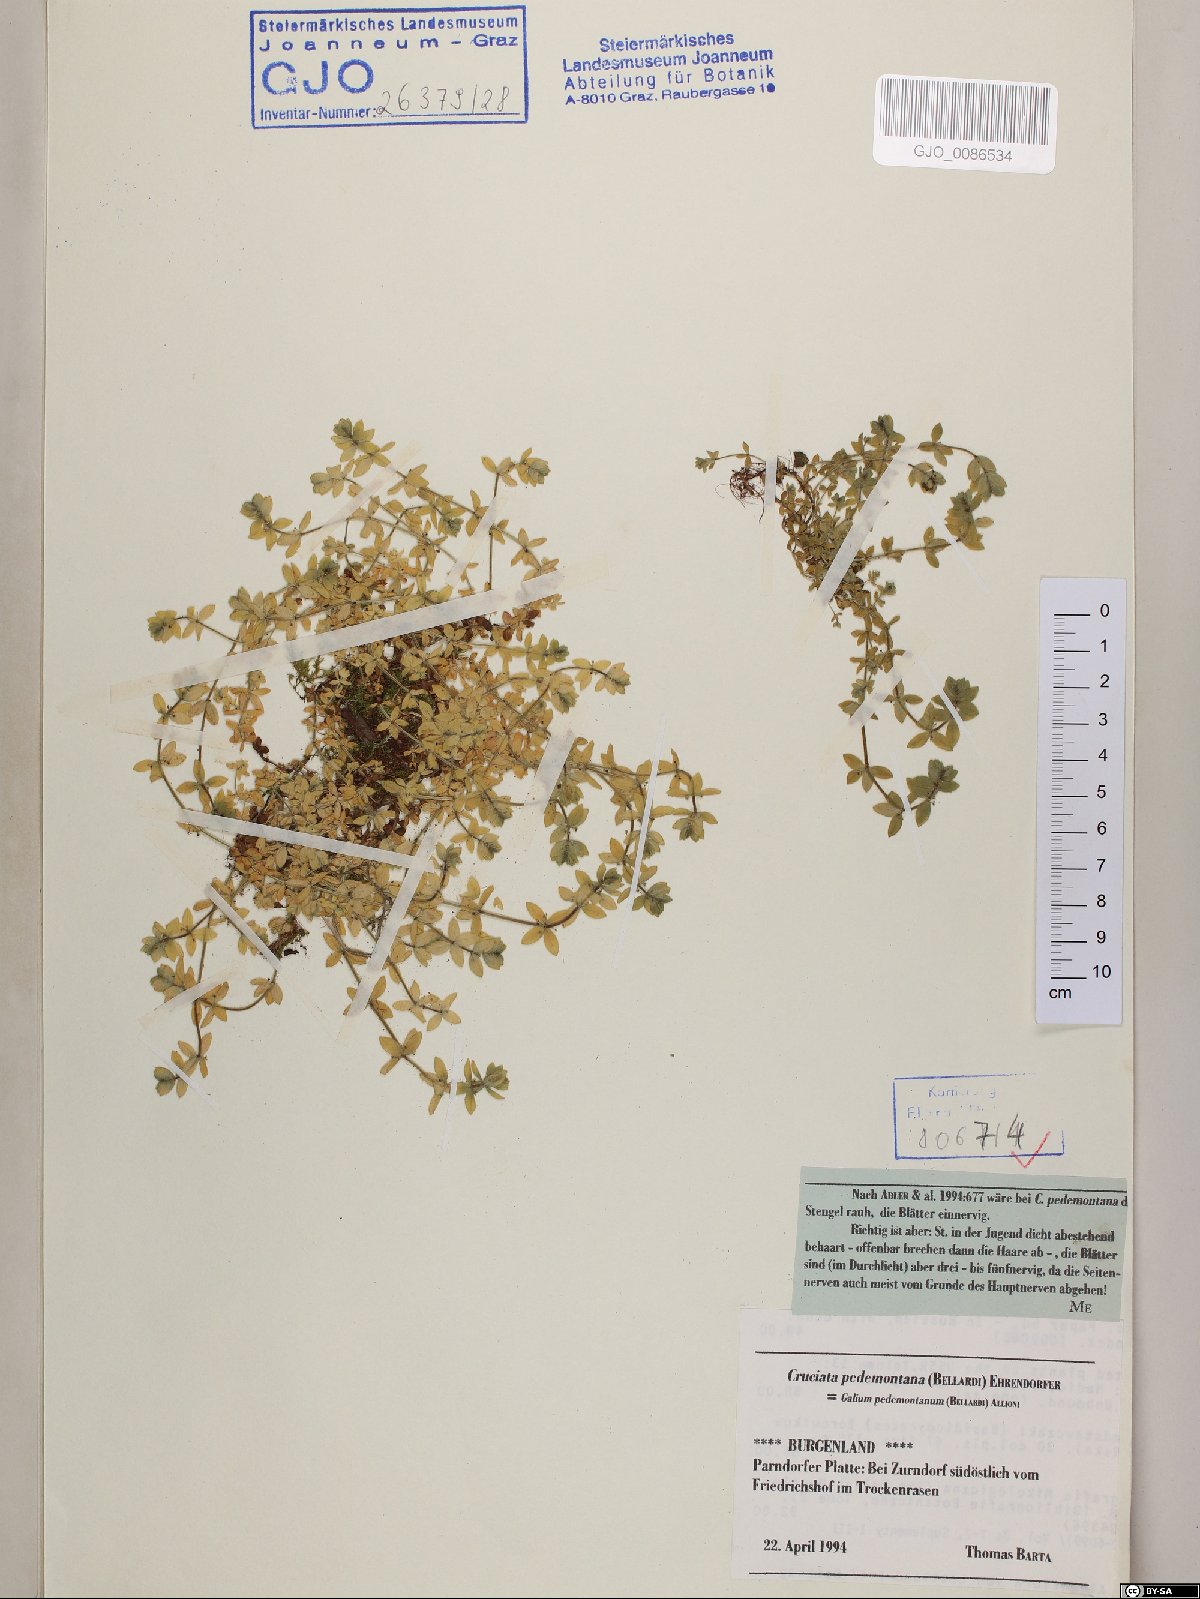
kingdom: Plantae
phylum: Tracheophyta
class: Magnoliopsida
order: Gentianales
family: Rubiaceae
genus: Cruciata
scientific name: Cruciata pedemontana
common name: Piedmont bedstraw
